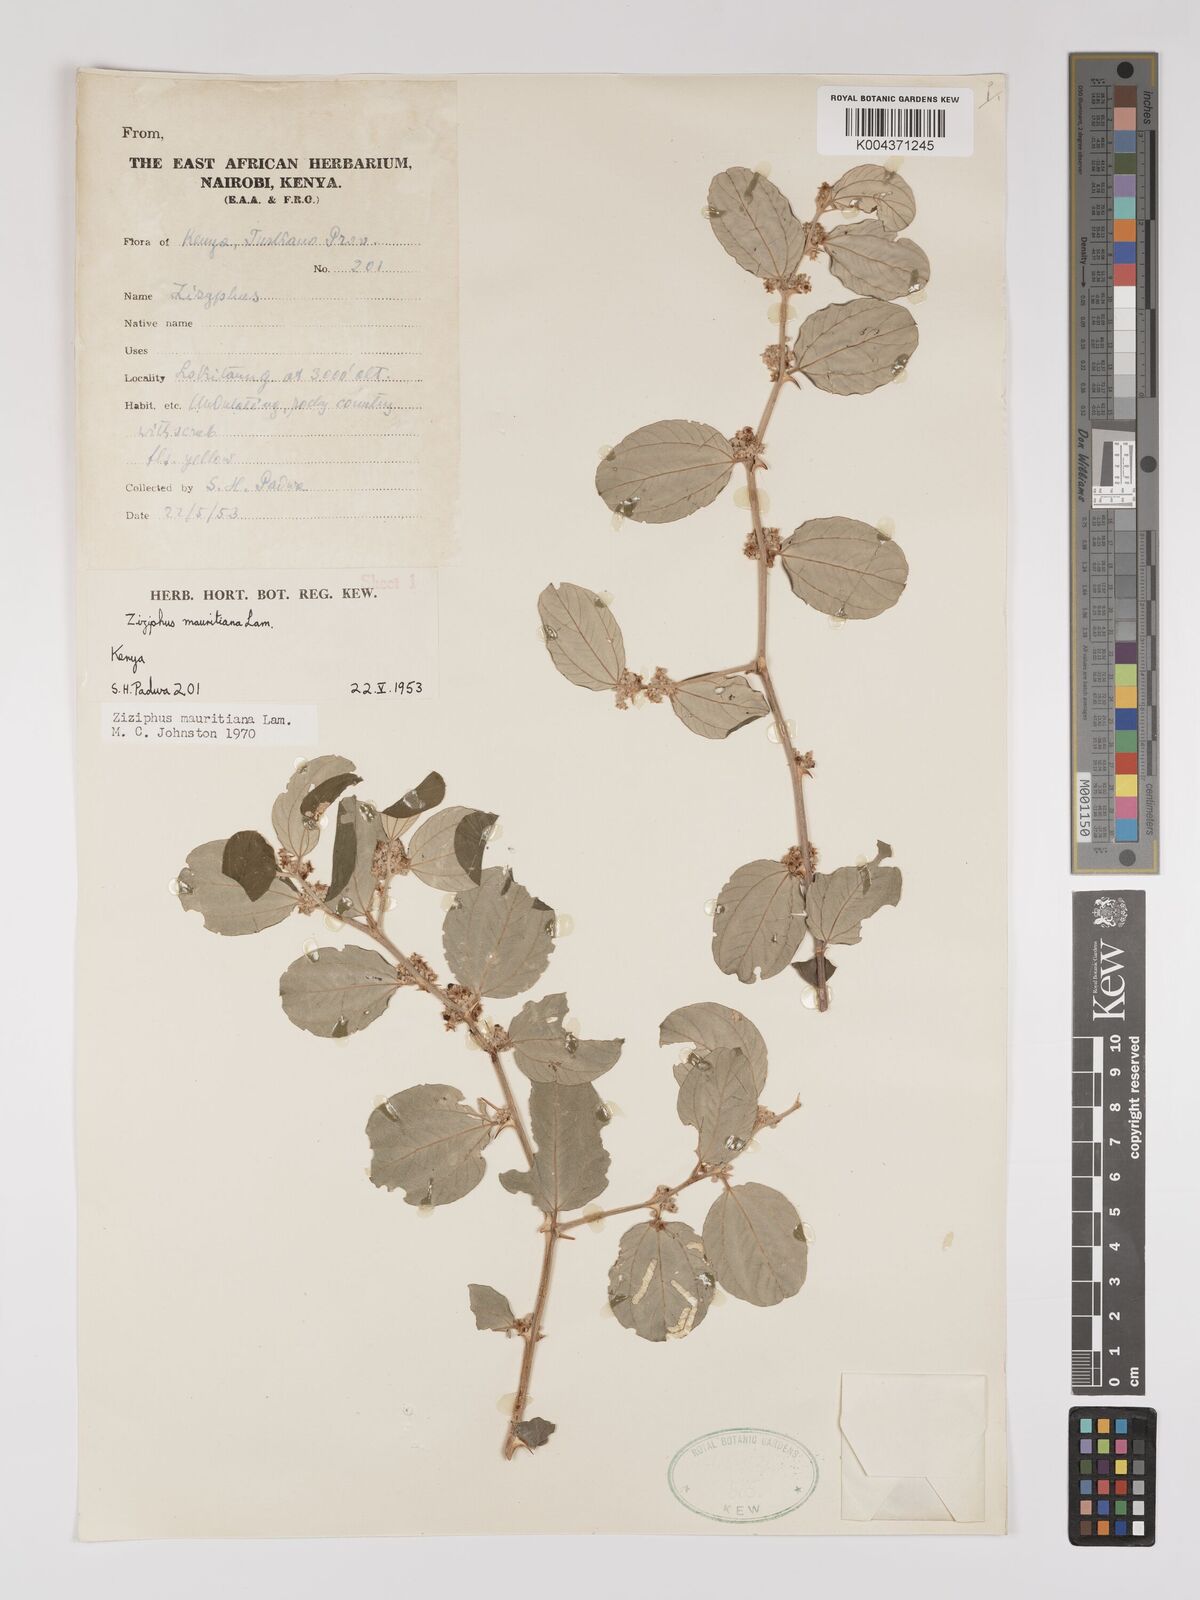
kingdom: Plantae
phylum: Tracheophyta
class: Magnoliopsida
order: Rosales
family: Rhamnaceae
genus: Ziziphus
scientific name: Ziziphus mauritiana
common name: Indian jujube
